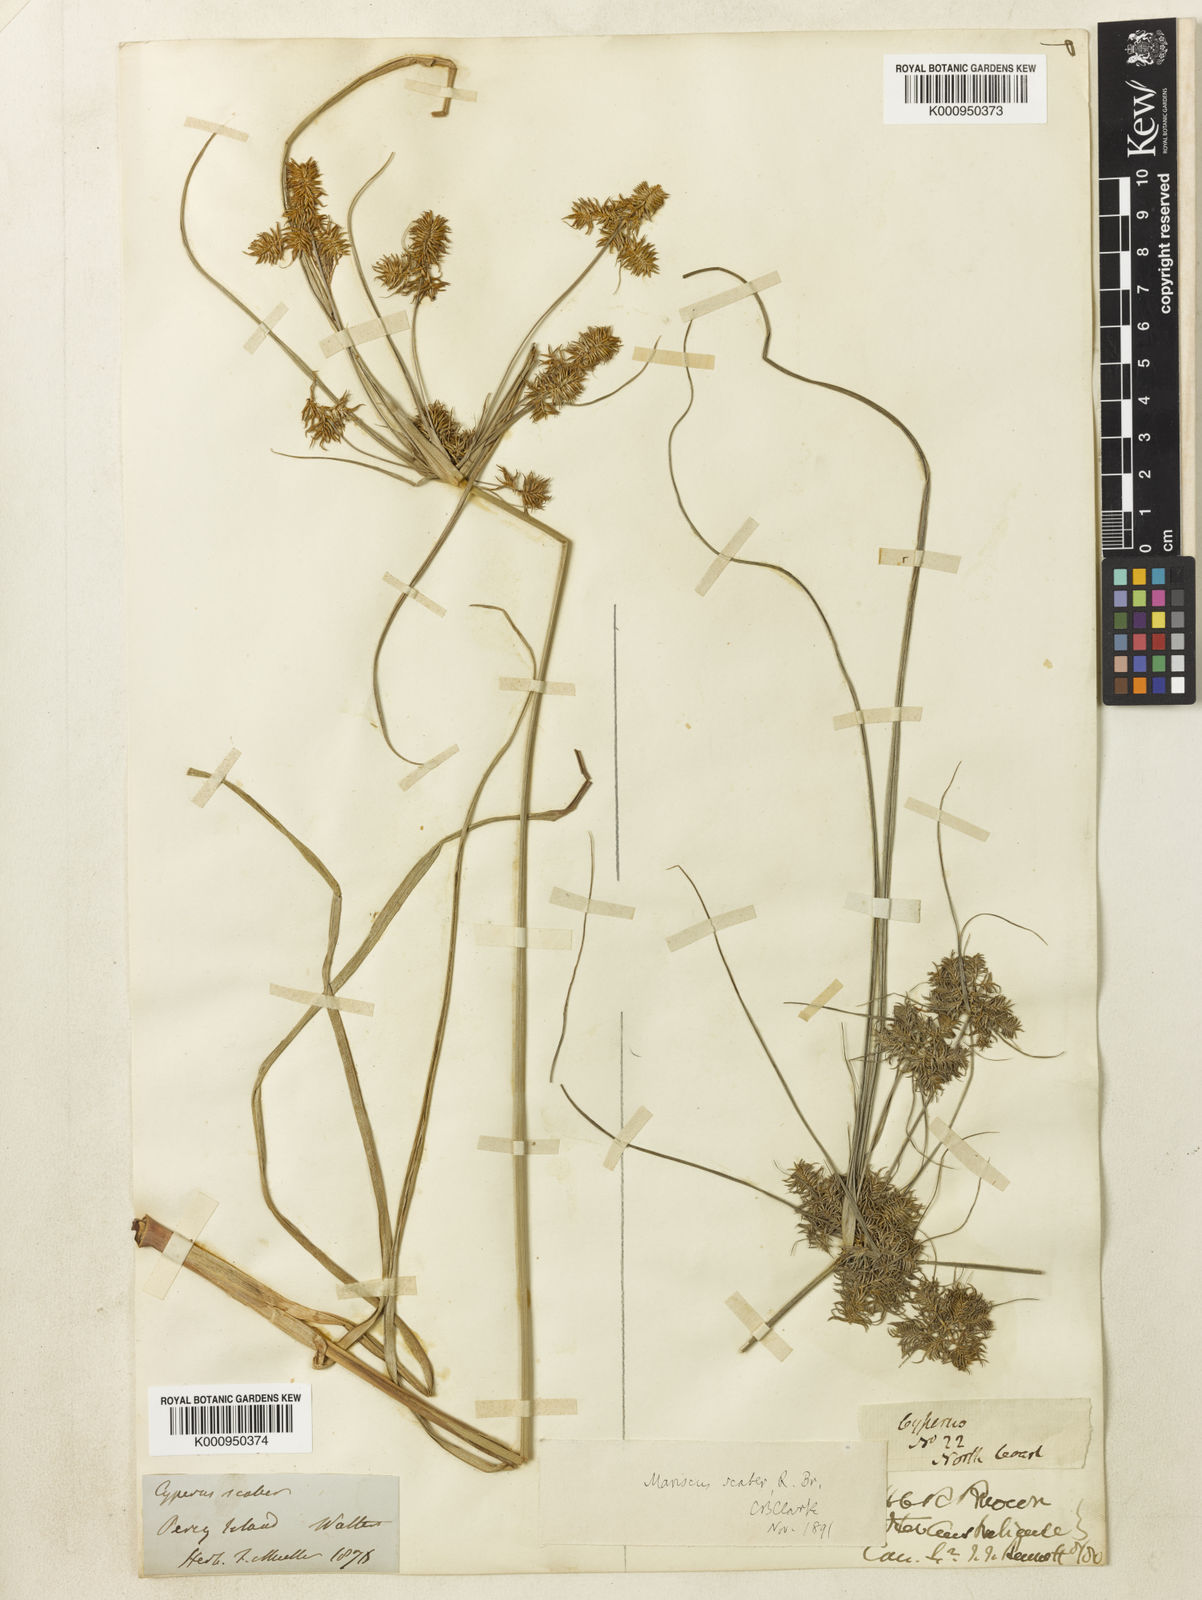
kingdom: Plantae
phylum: Tracheophyta
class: Liliopsida
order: Poales
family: Cyperaceae
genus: Cyperus
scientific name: Cyperus scaber
